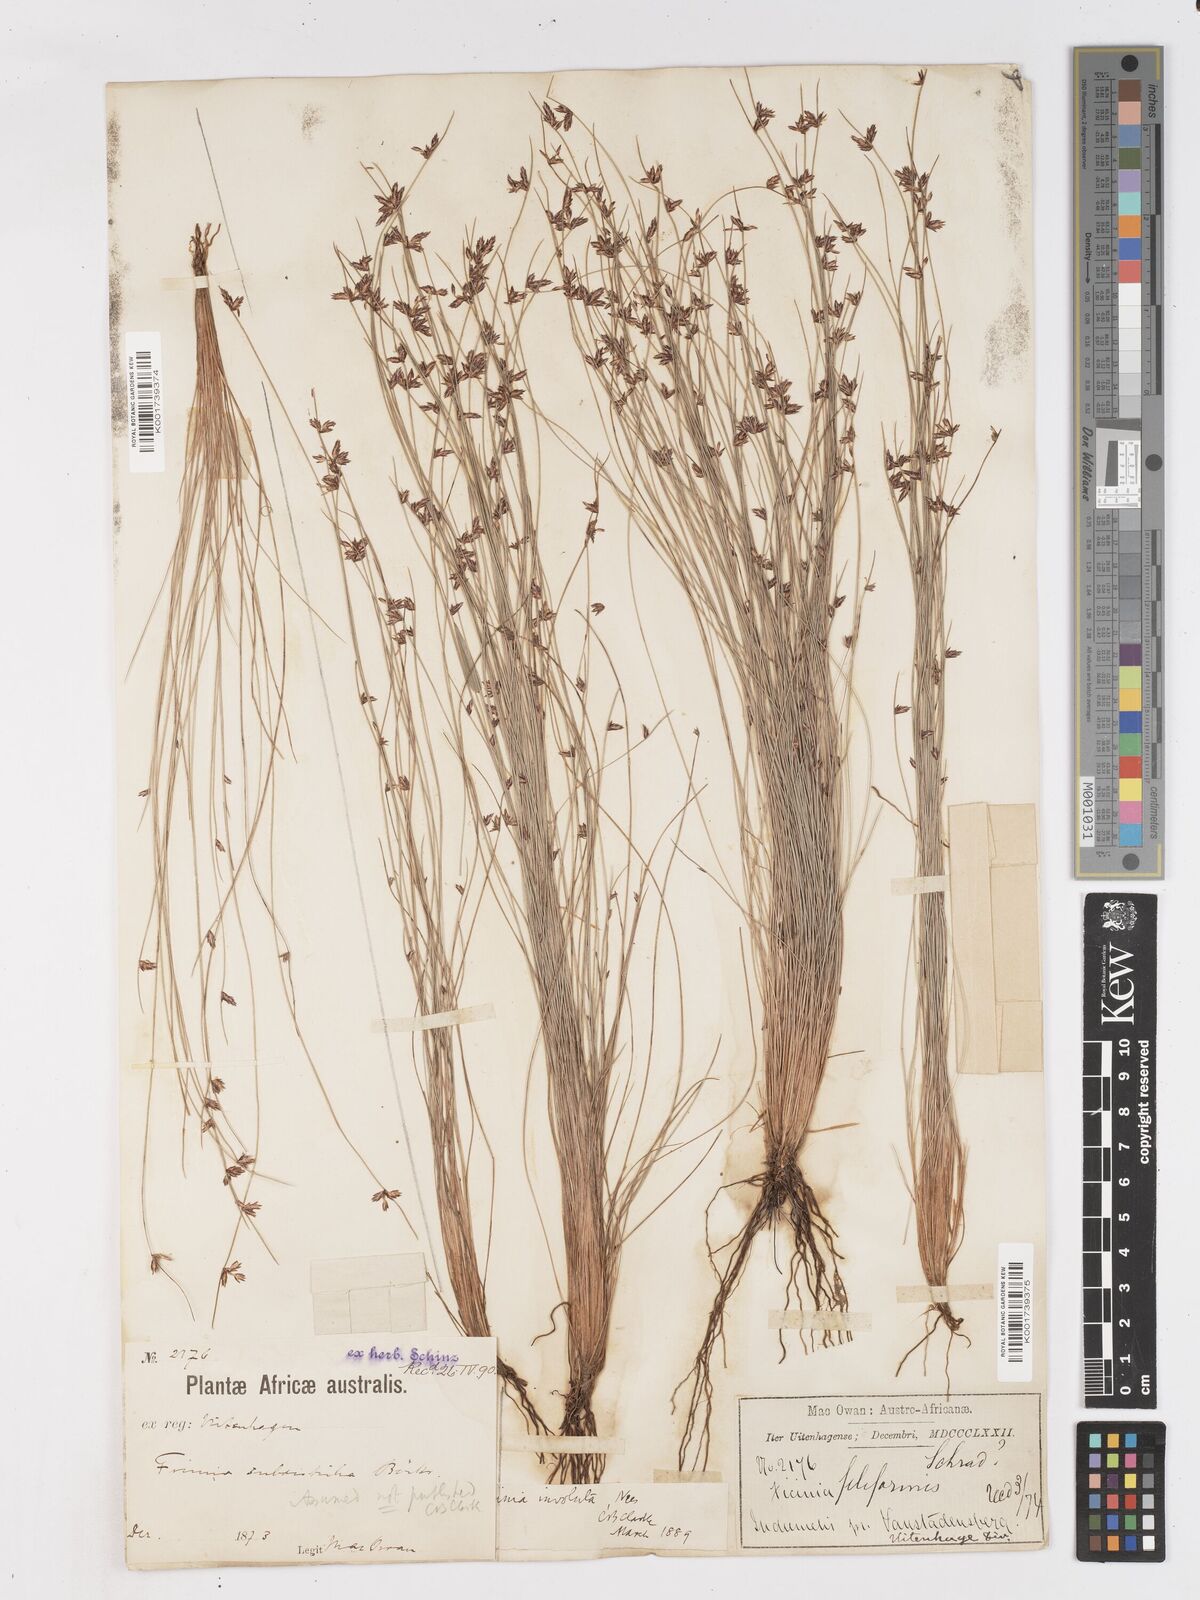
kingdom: Plantae
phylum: Tracheophyta
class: Liliopsida
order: Poales
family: Cyperaceae
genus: Ficinia
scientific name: Ficinia involuta
